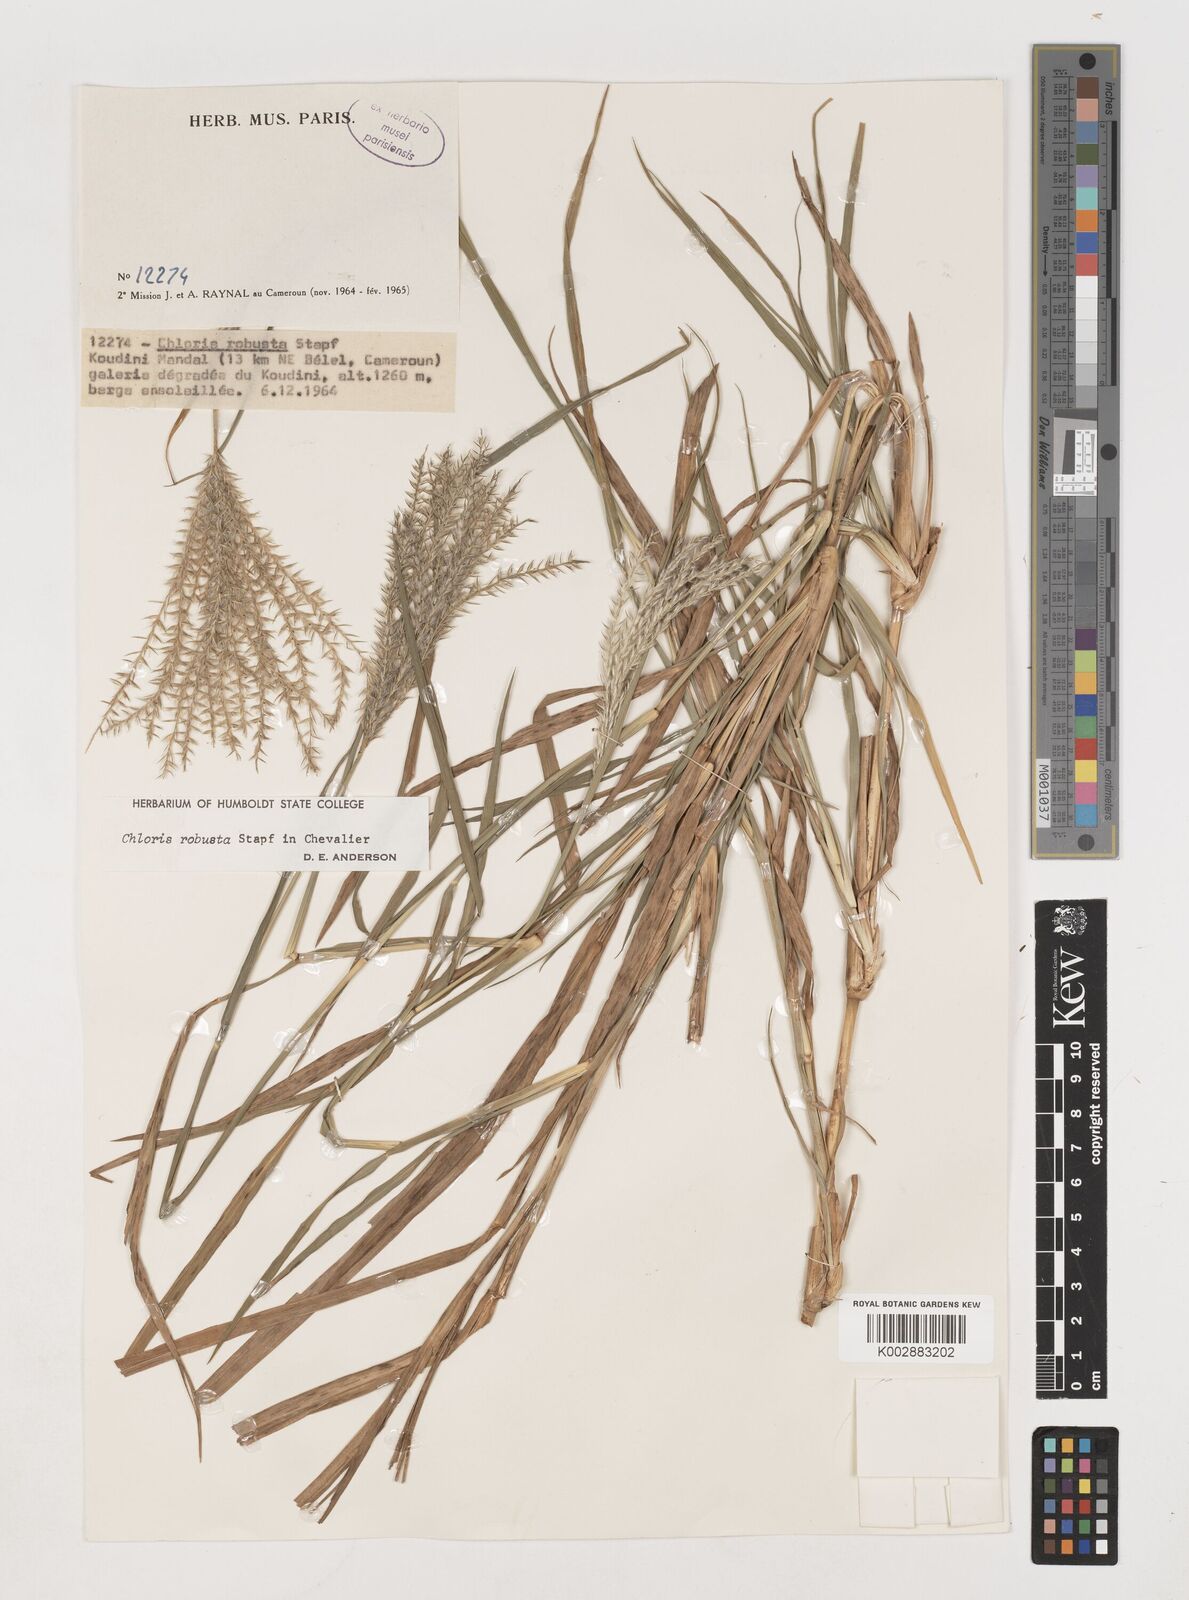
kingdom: Plantae
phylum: Tracheophyta
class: Liliopsida
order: Poales
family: Poaceae
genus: Chloris
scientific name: Chloris robusta
